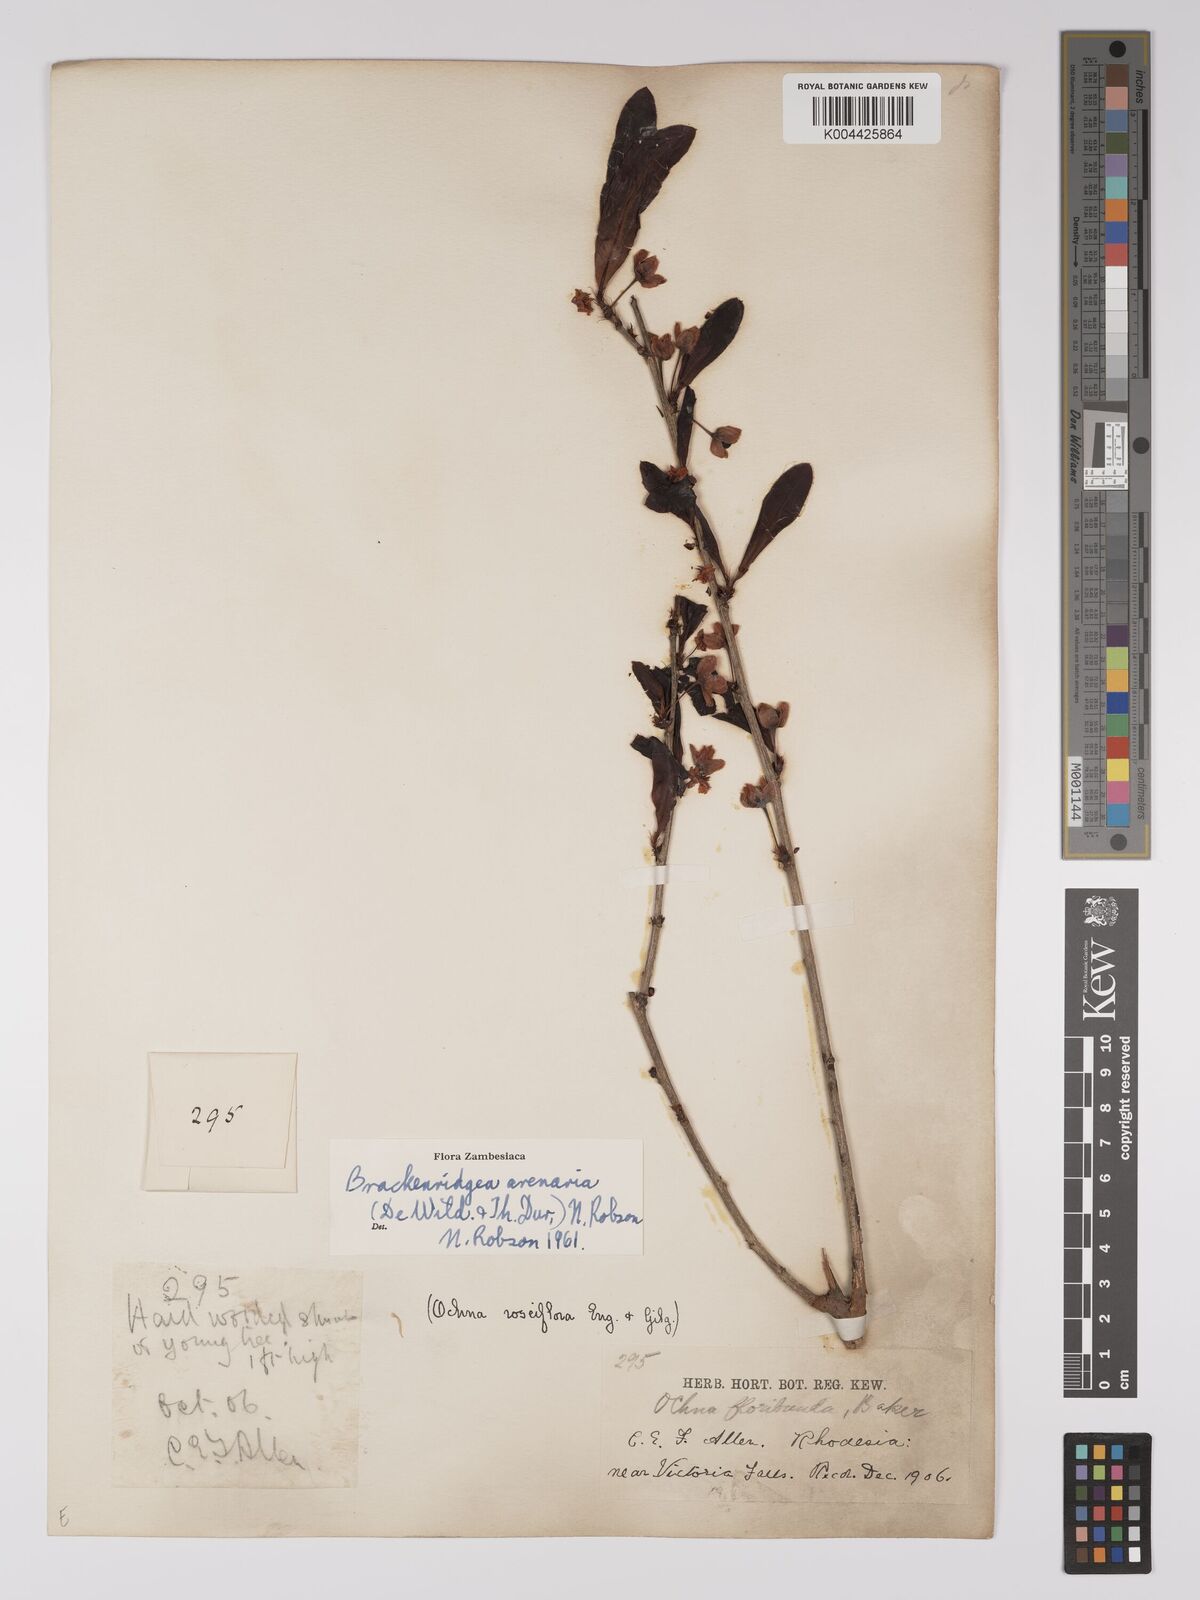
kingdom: Plantae
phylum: Tracheophyta
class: Magnoliopsida
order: Malpighiales
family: Ochnaceae
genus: Ochna
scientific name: Ochna arenaria
